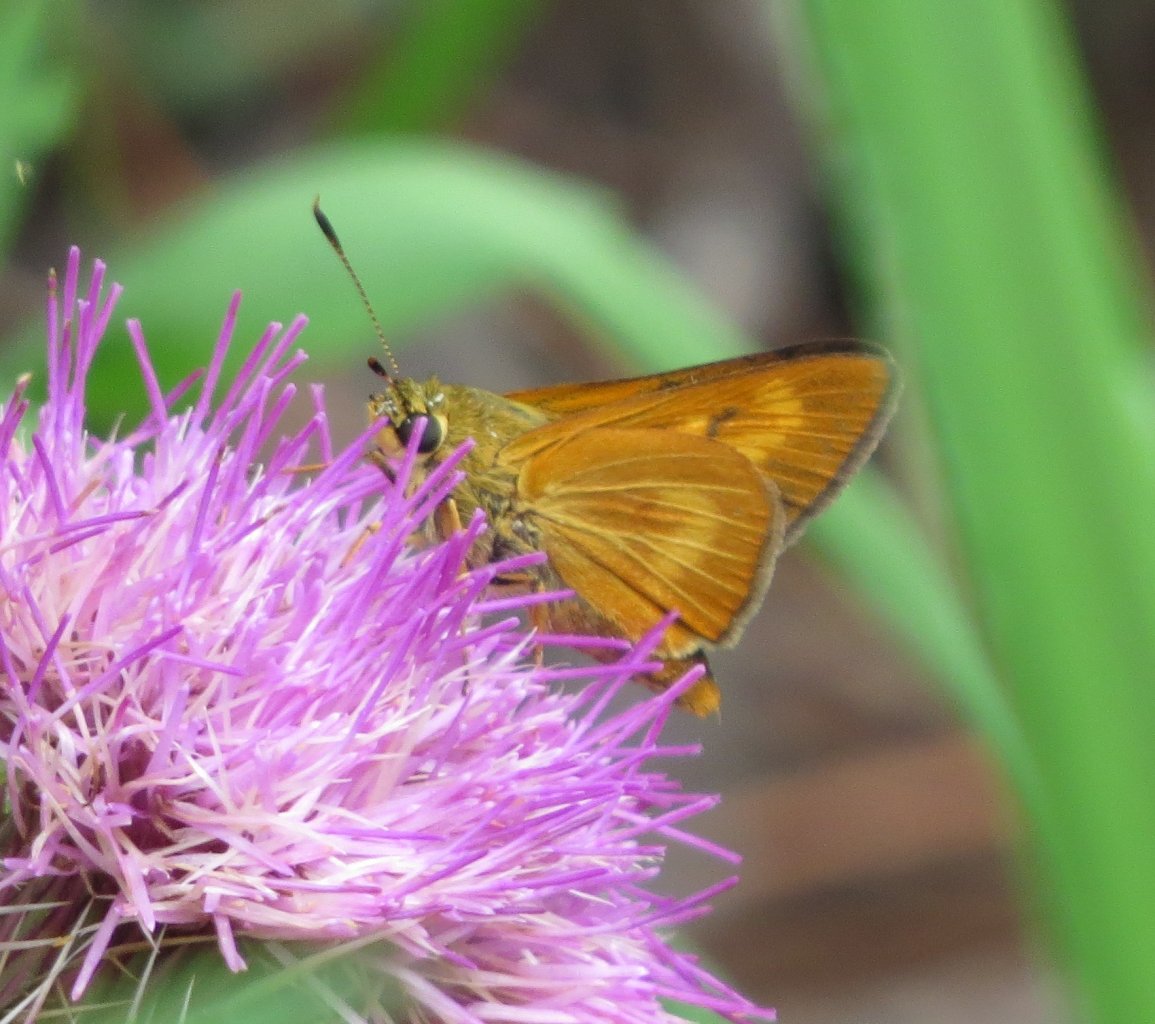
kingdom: Animalia
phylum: Arthropoda
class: Insecta
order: Lepidoptera
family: Hesperiidae
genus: Problema
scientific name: Problema byssus
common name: Byssus Skipper
